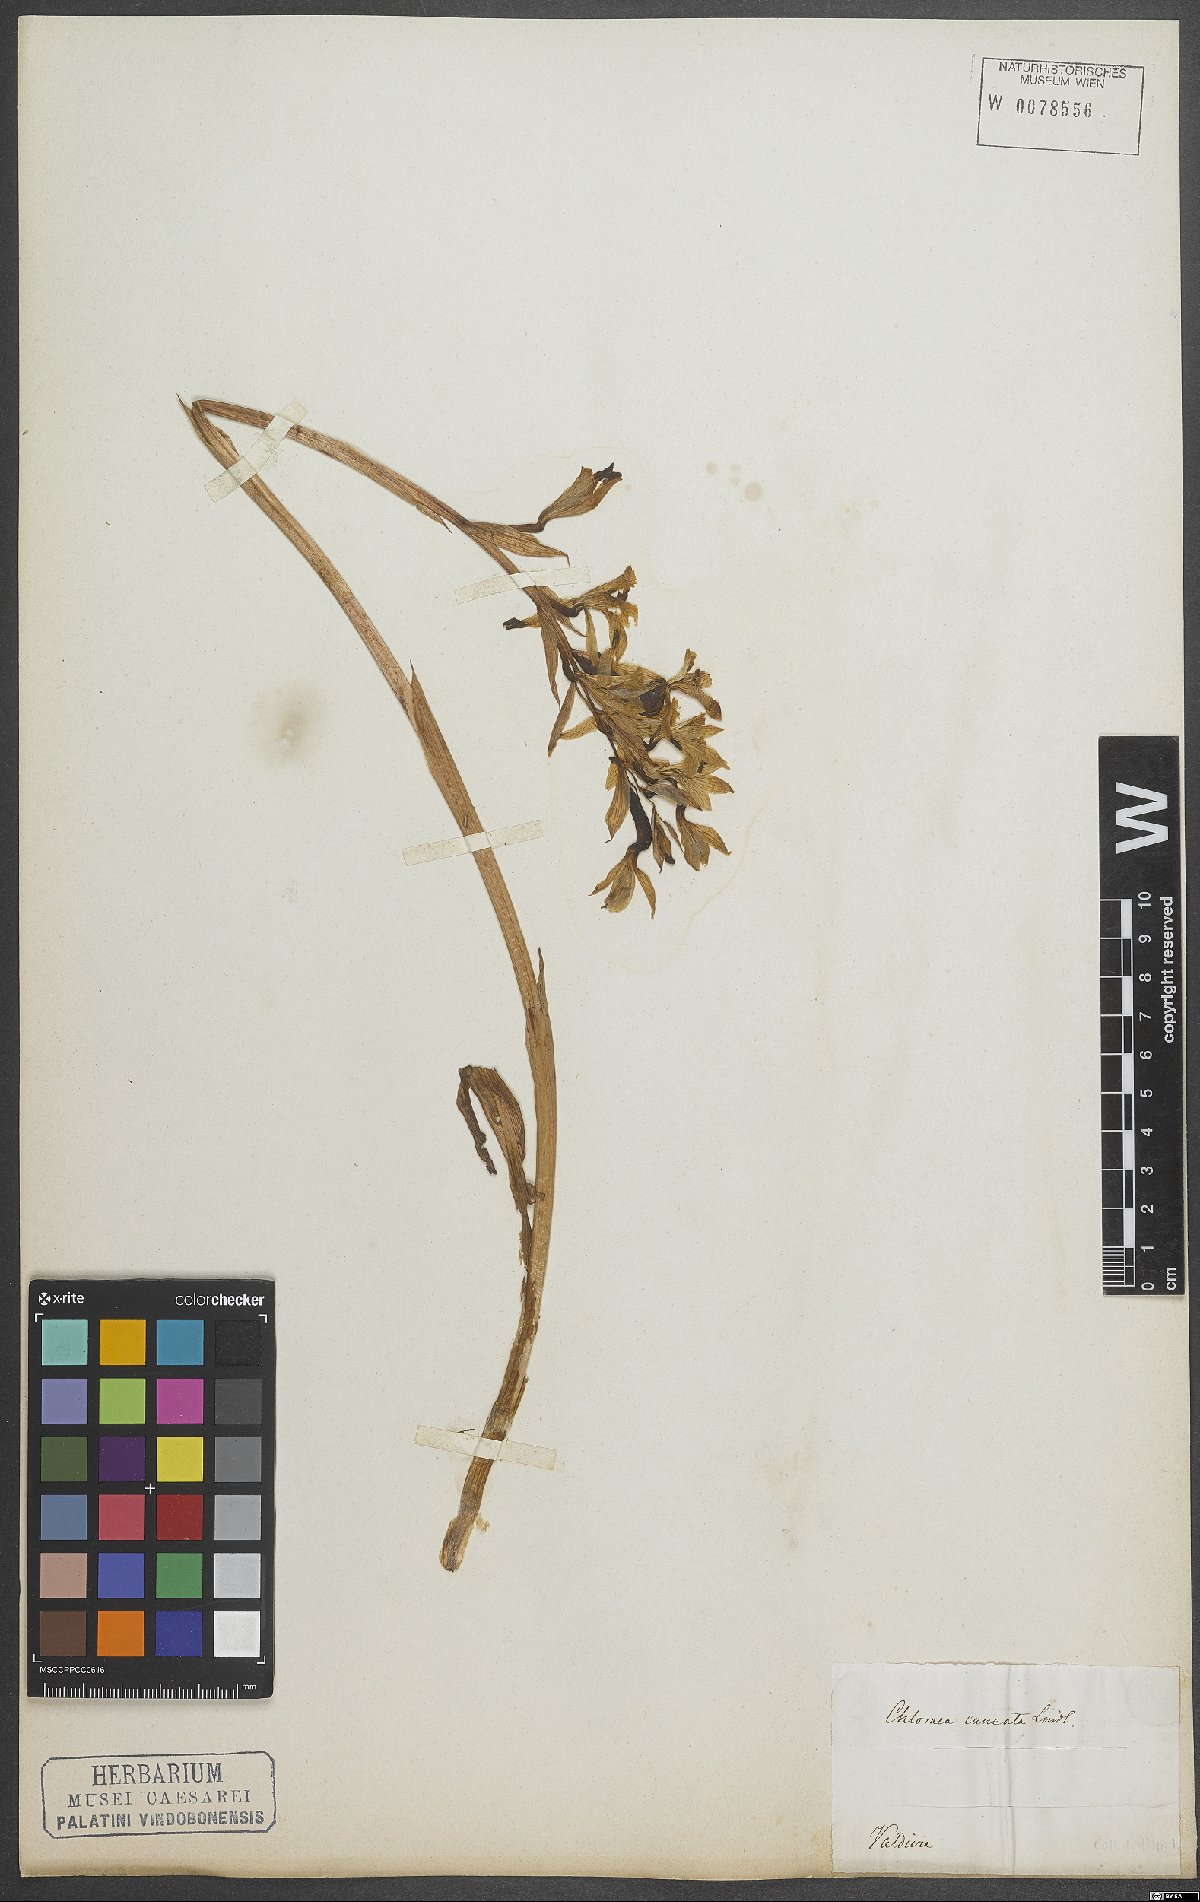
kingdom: Plantae
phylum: Tracheophyta
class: Liliopsida
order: Asparagales
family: Orchidaceae
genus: Chloraea
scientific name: Chloraea
